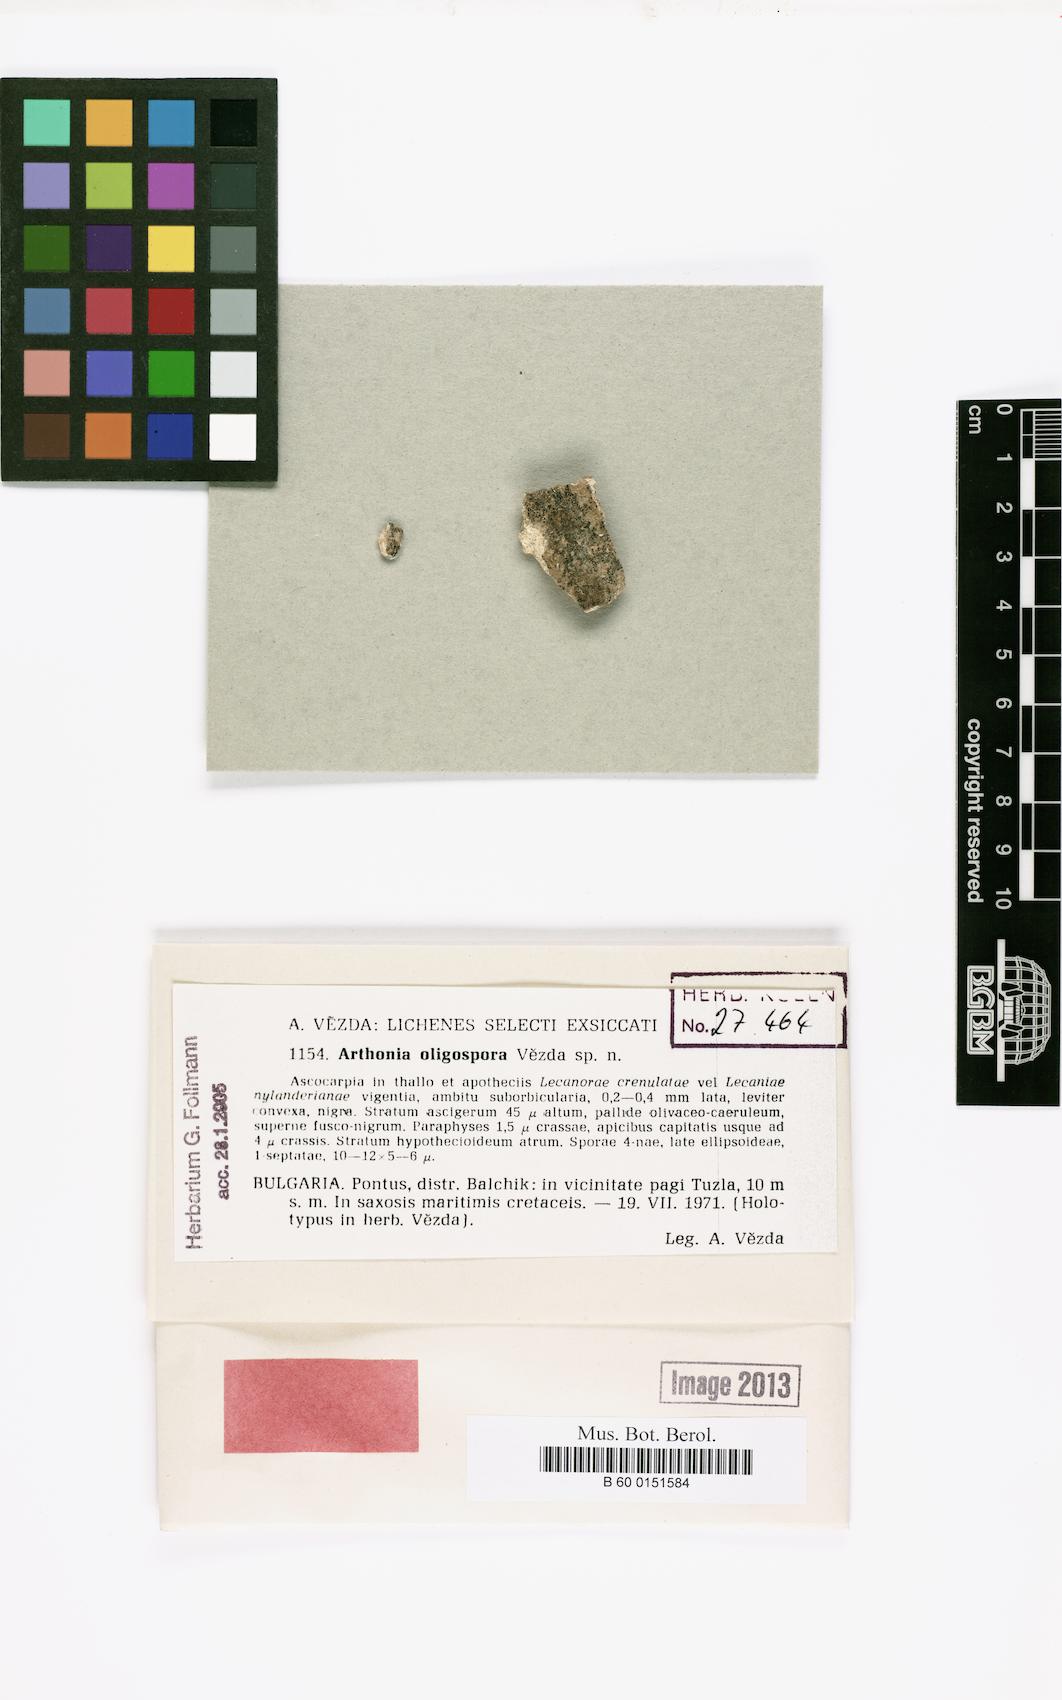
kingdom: Fungi
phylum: Ascomycota
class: Arthoniomycetes
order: Arthoniales
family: Arthoniaceae
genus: Arthonia
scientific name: Arthonia
